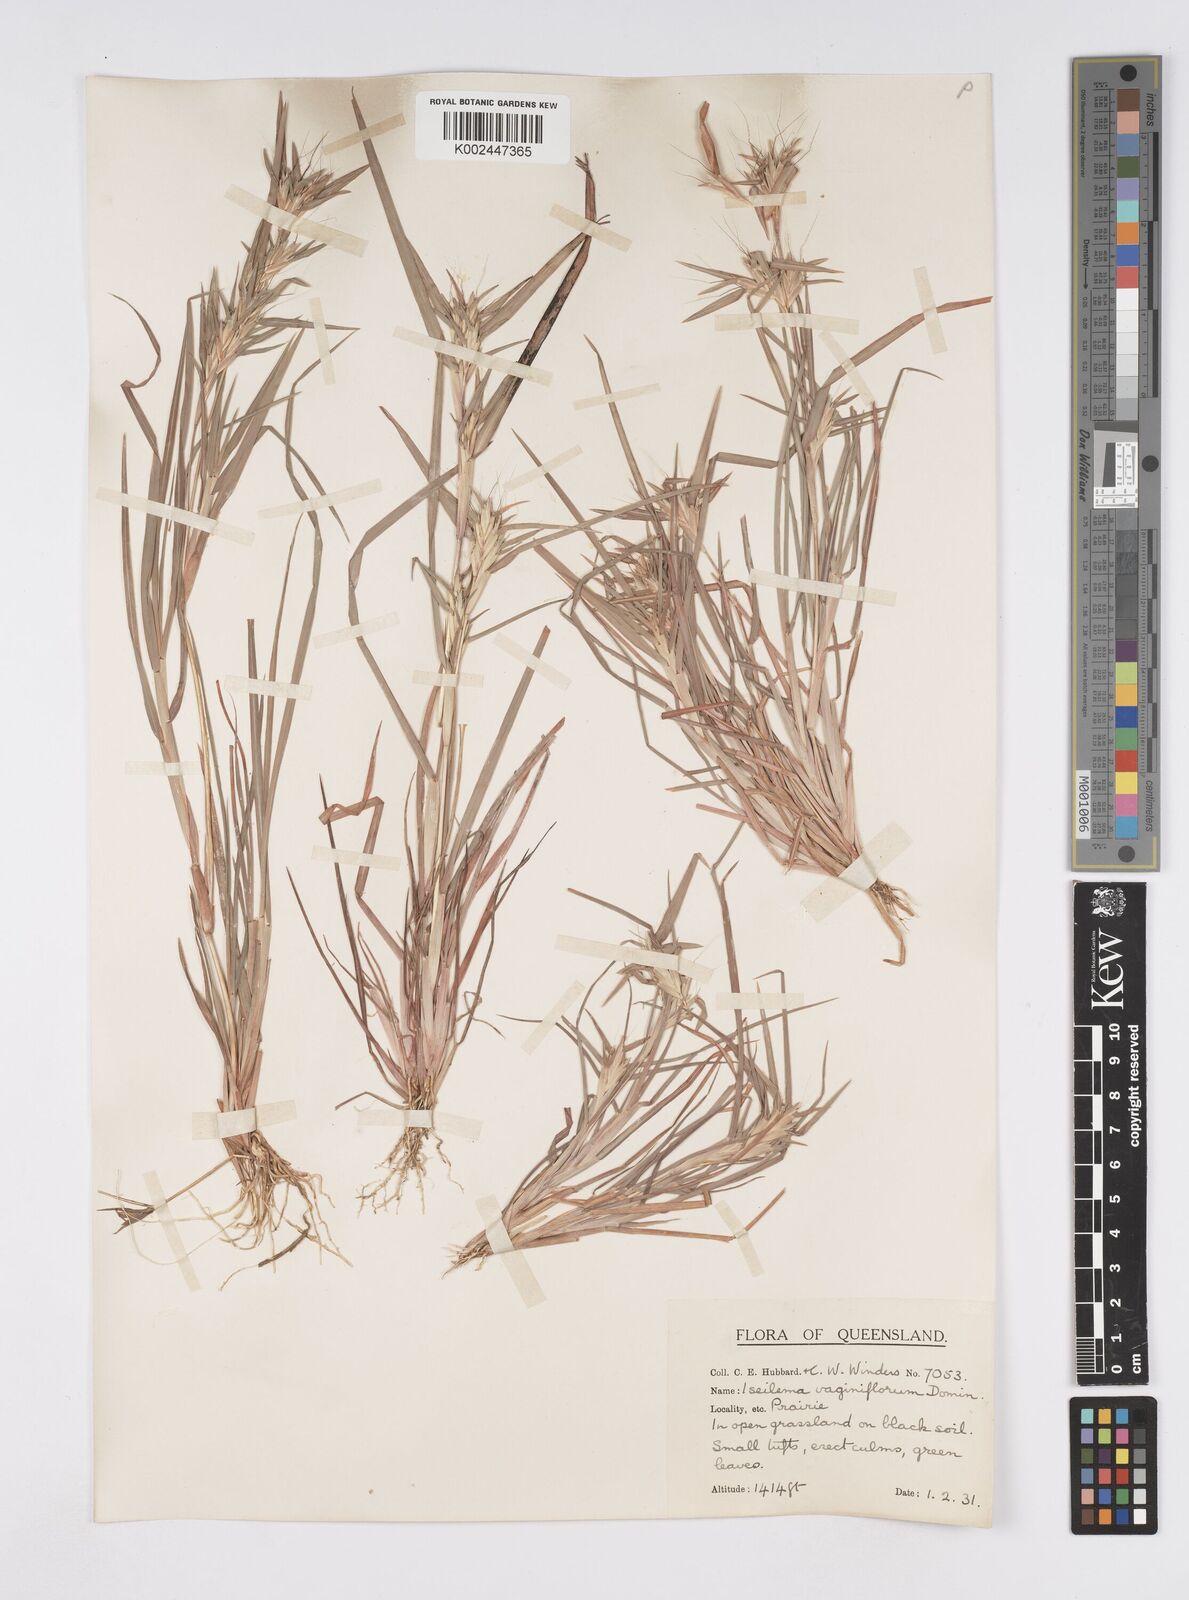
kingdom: Plantae
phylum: Tracheophyta
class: Liliopsida
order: Poales
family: Poaceae
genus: Iseilema
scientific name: Iseilema vaginiflorum
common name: Red flinders grass
